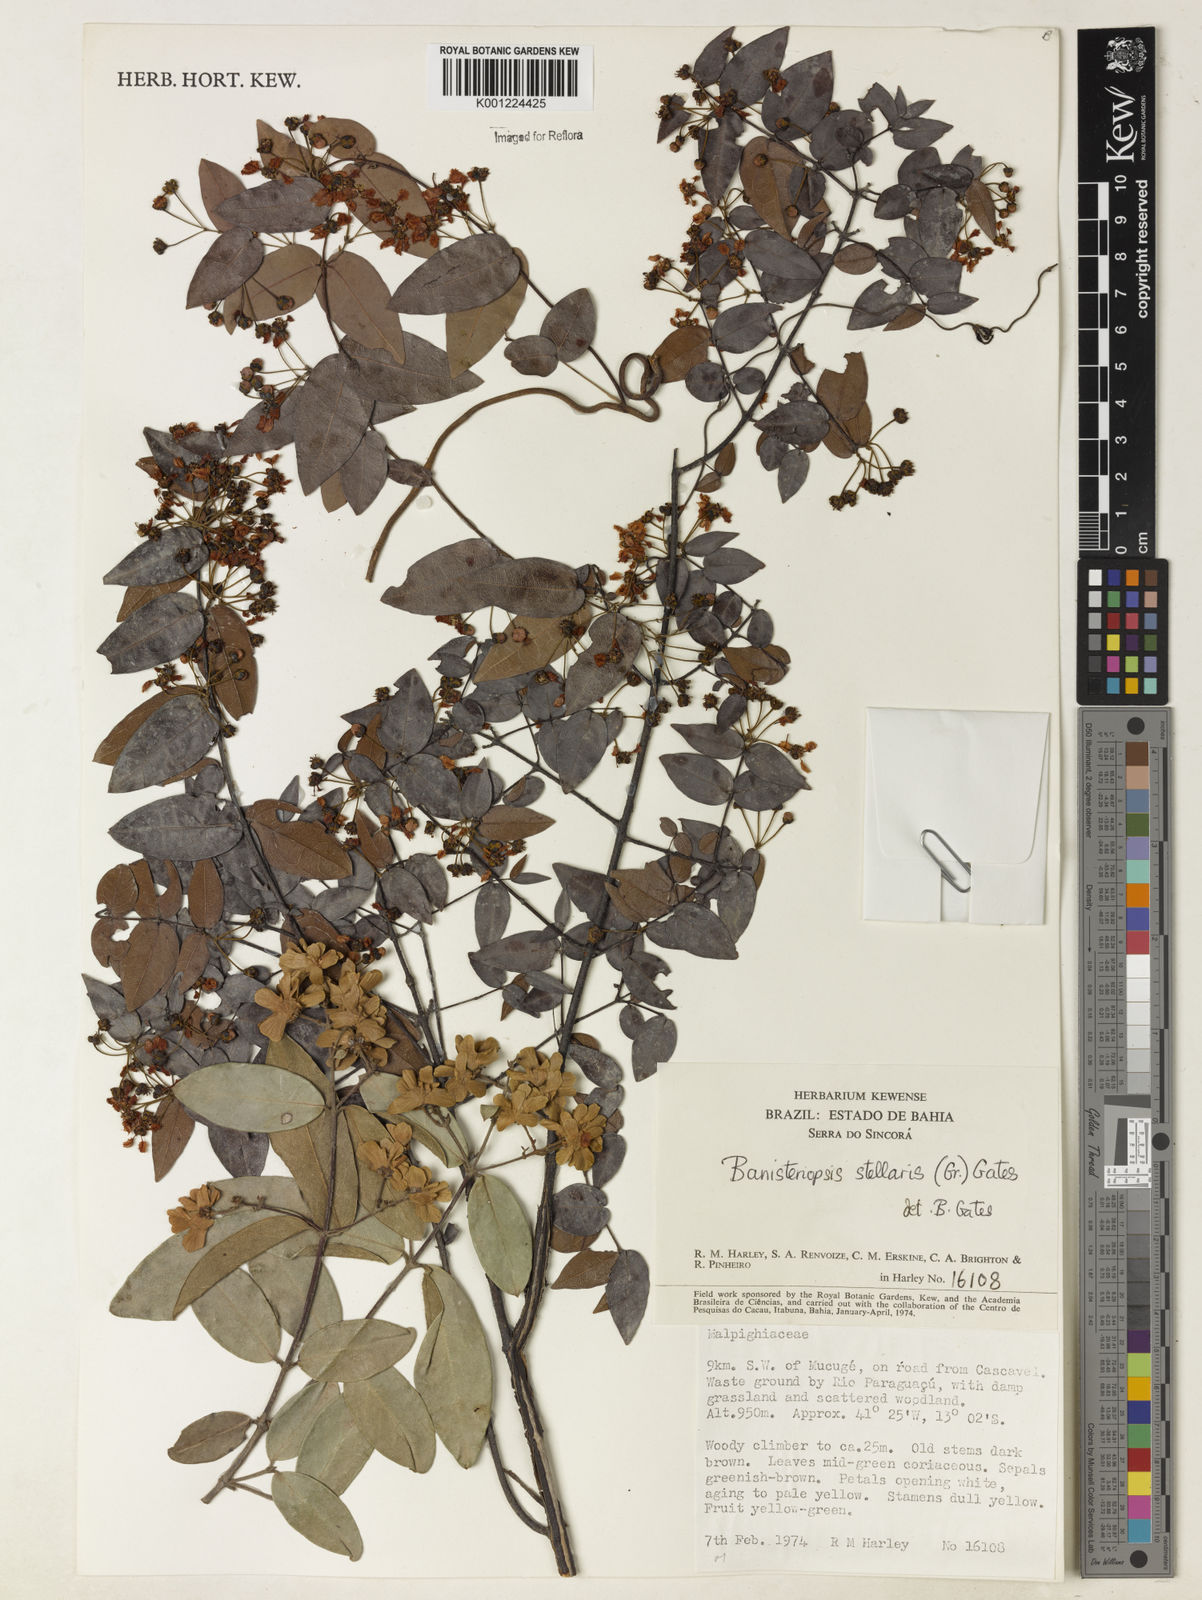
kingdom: Plantae
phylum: Tracheophyta
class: Magnoliopsida
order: Malpighiales
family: Malpighiaceae
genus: Banisteriopsis
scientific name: Banisteriopsis stellaris
